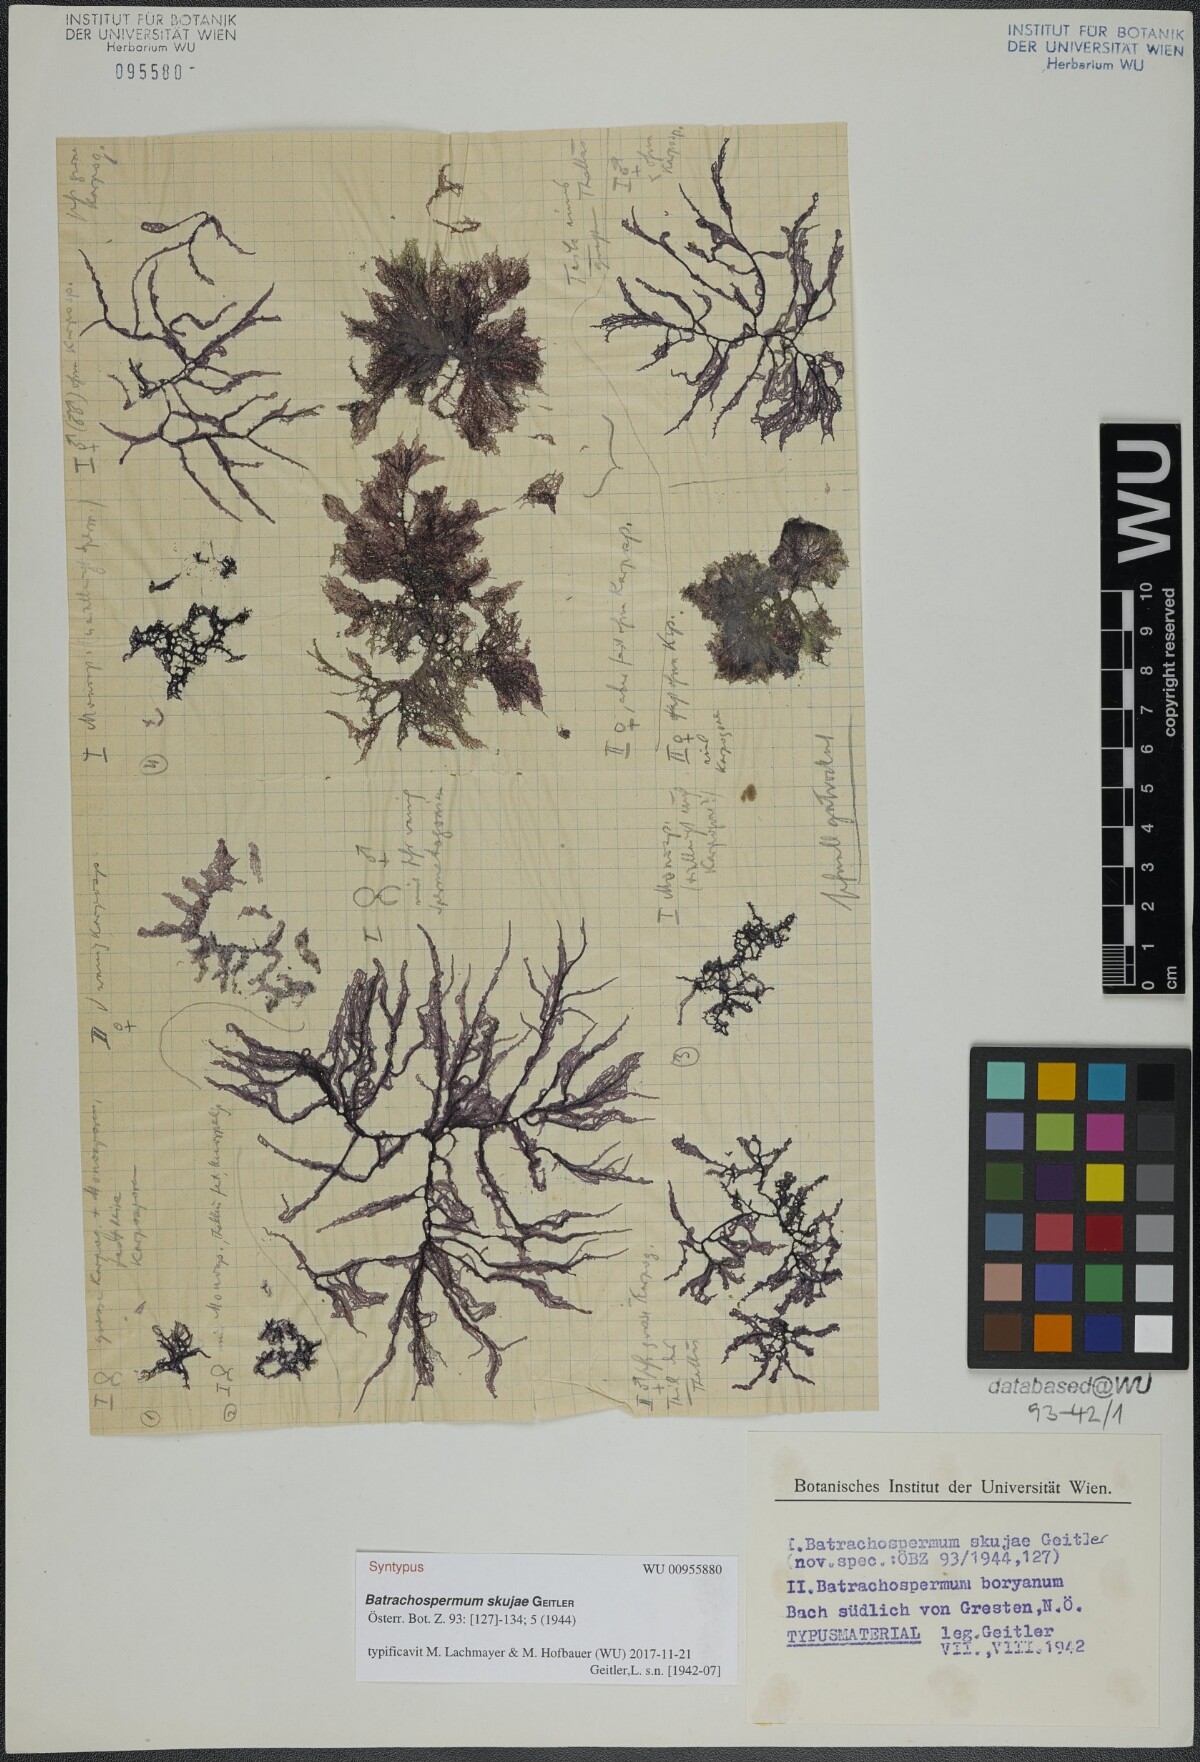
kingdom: Plantae
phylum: Rhodophyta
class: Florideophyceae
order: Batrachospermales
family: Batrachospermaceae
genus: Batrachospermum
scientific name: Batrachospermum gelatinosum
